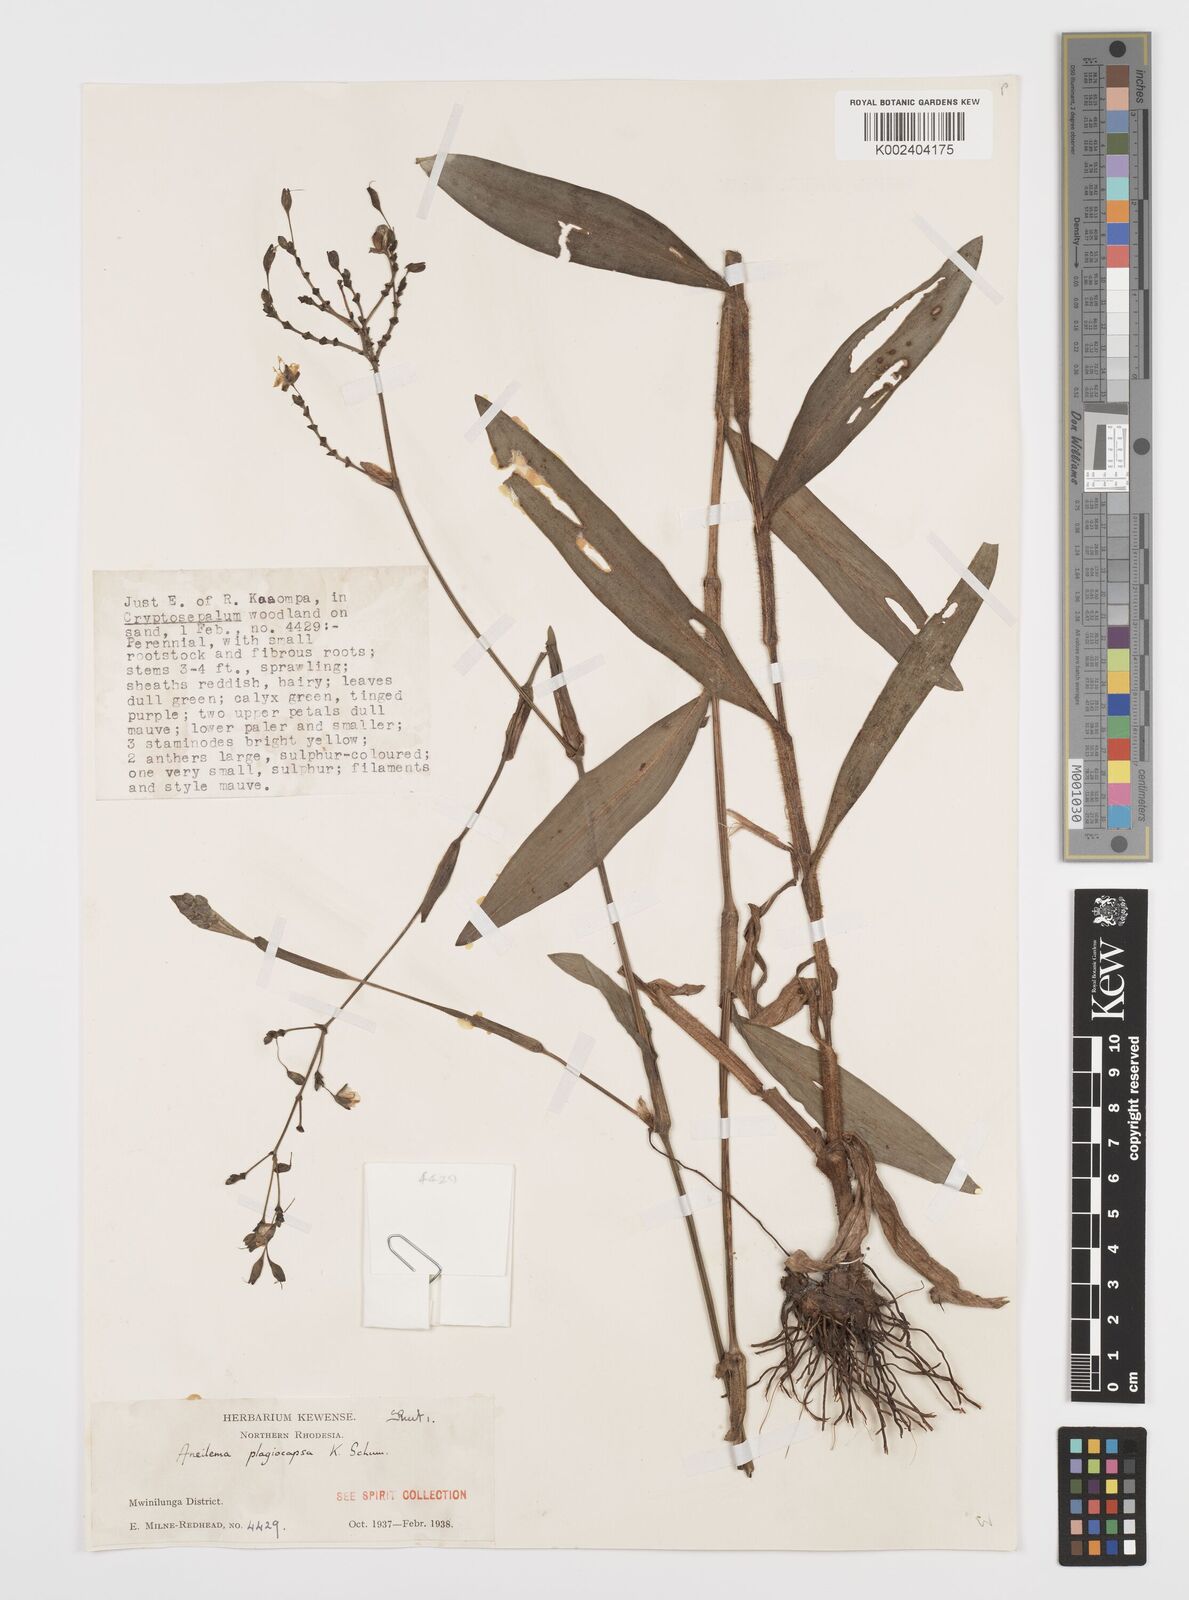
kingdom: Plantae
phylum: Tracheophyta
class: Liliopsida
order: Commelinales
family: Commelinaceae
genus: Aneilema
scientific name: Aneilema plagiocapsa
